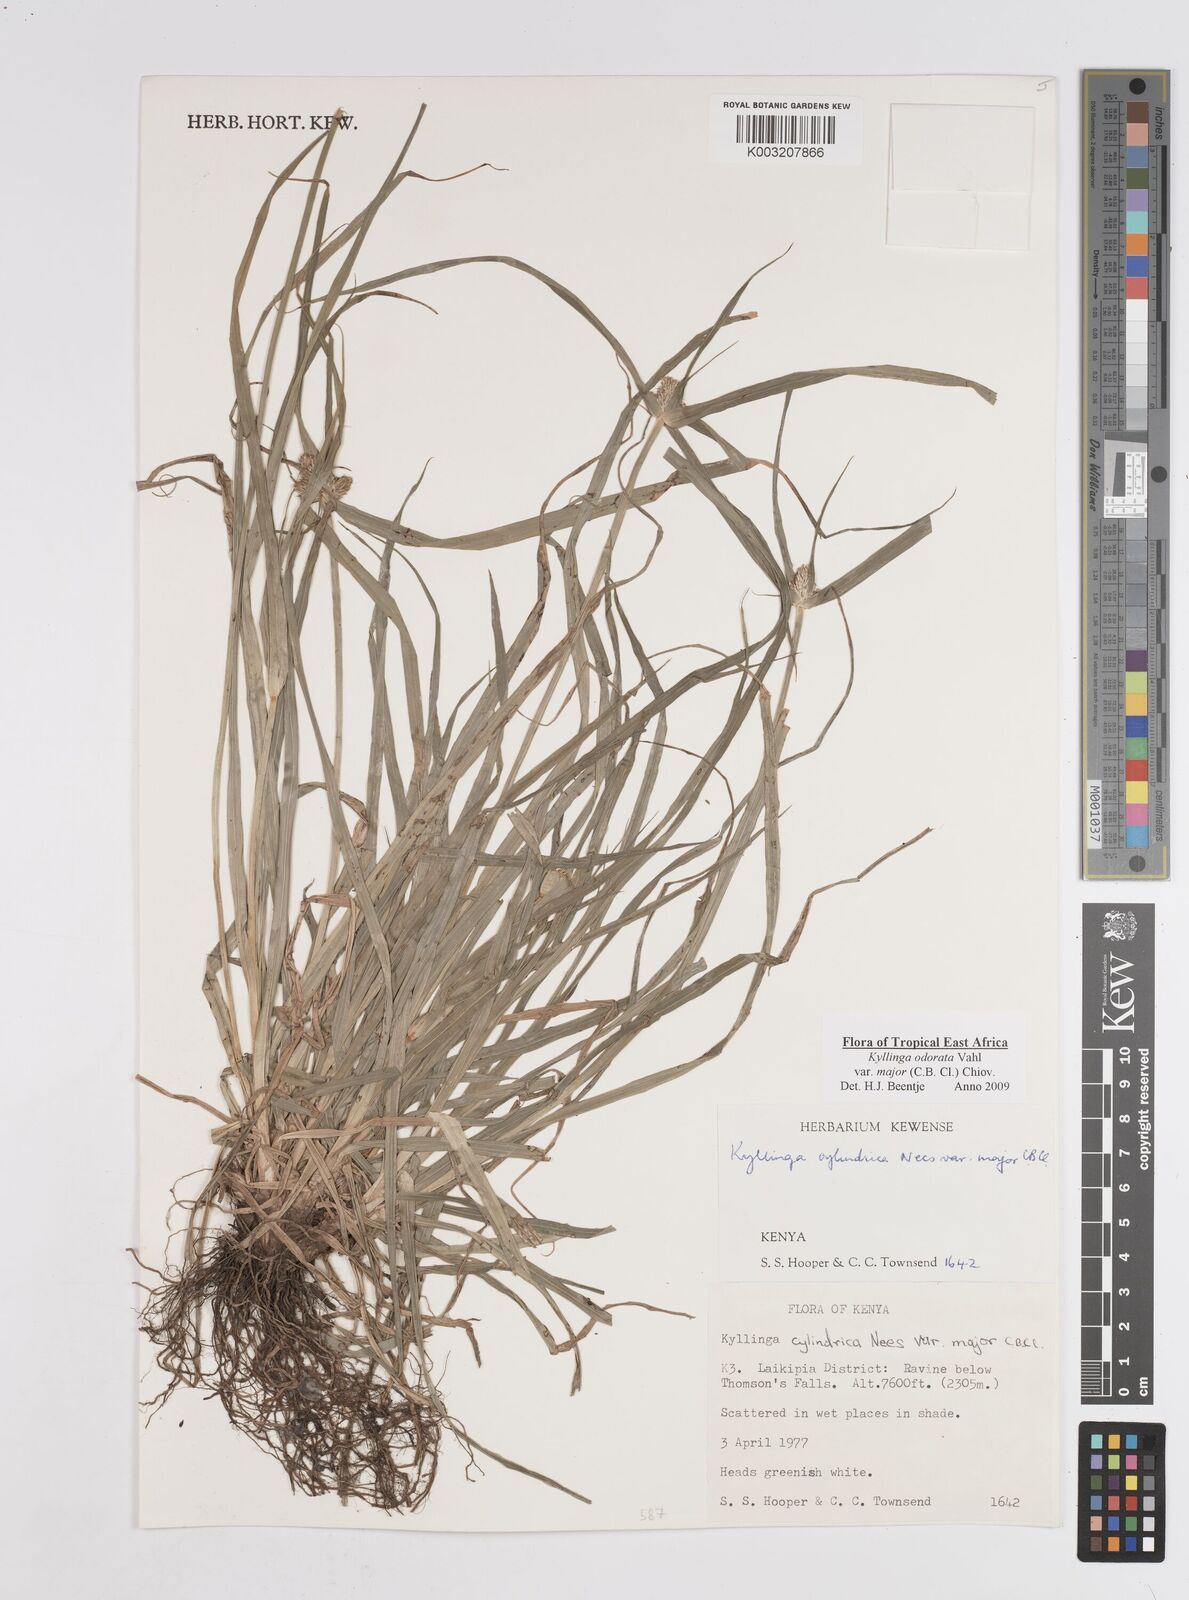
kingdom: Plantae
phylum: Tracheophyta
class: Liliopsida
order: Poales
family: Cyperaceae
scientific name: Cyperaceae
